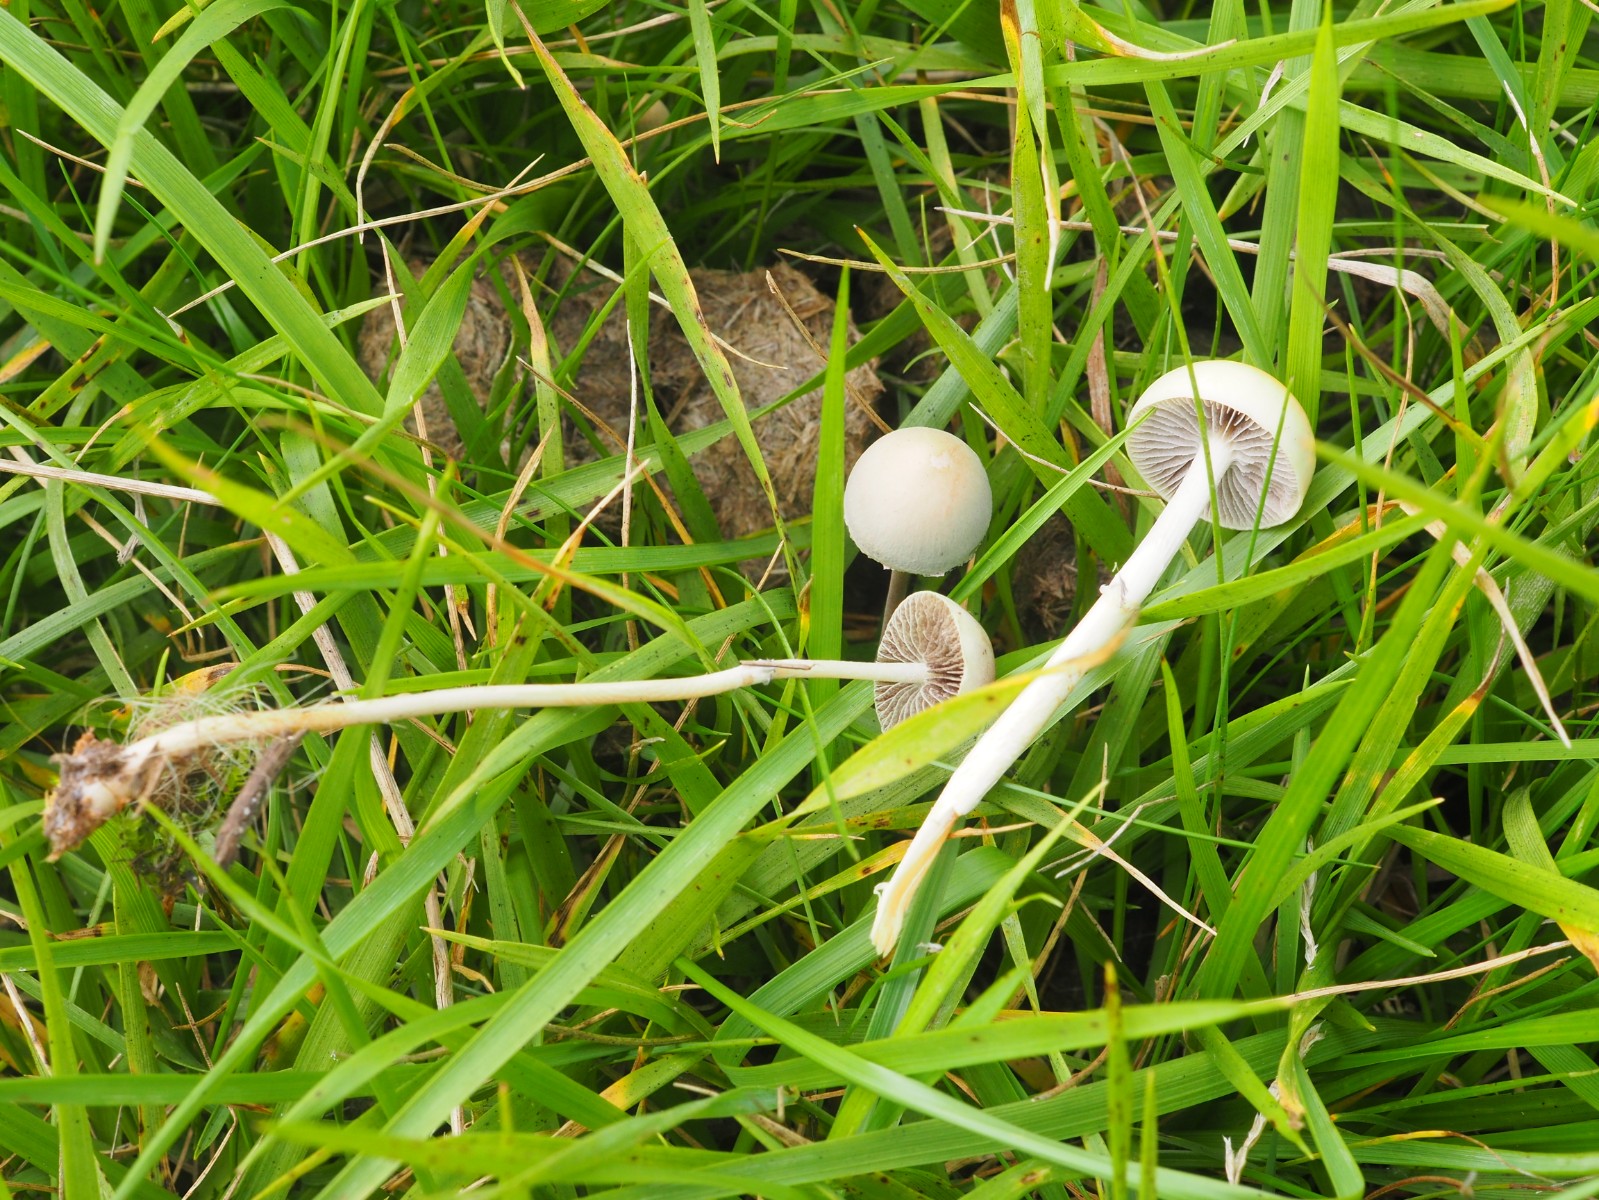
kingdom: Fungi
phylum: Basidiomycota
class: Agaricomycetes
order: Agaricales
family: Strophariaceae
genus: Protostropharia
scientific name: Protostropharia semiglobata
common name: halvkugleformet bredblad
